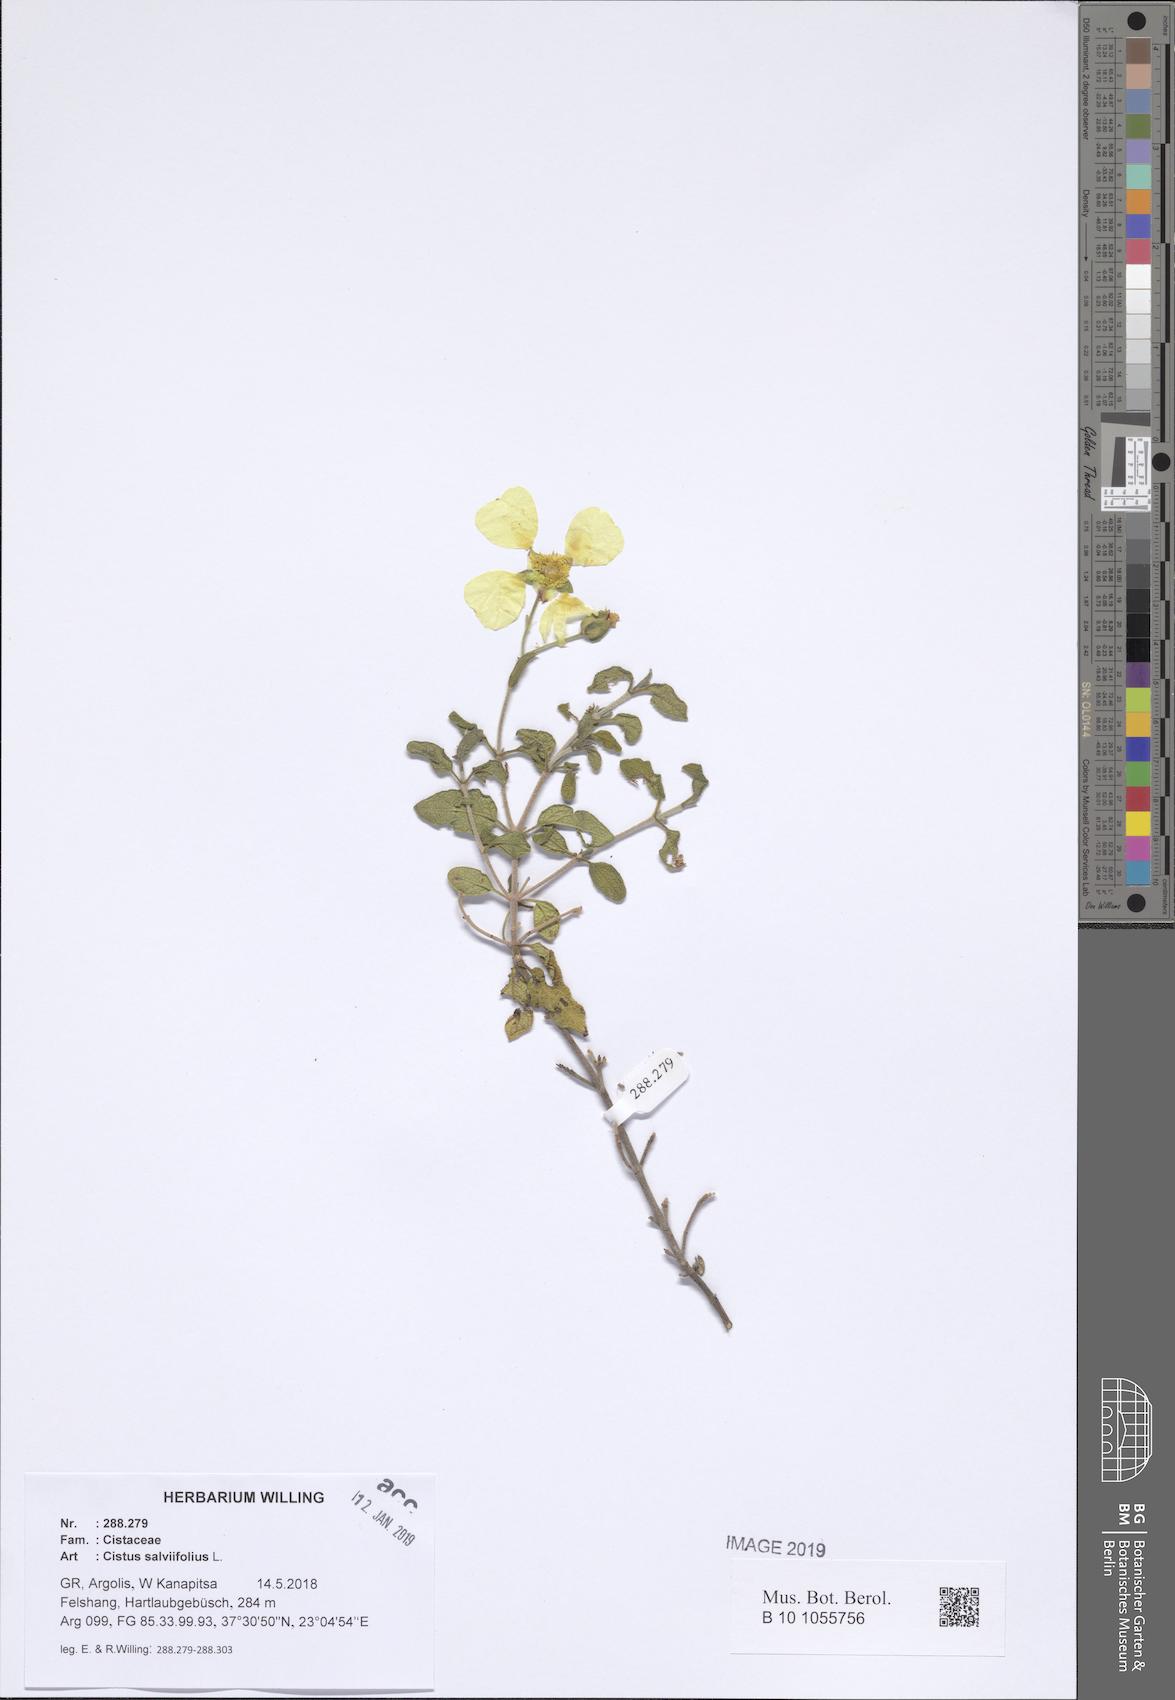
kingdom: Plantae
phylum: Tracheophyta
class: Magnoliopsida
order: Malvales
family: Cistaceae
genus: Cistus
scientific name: Cistus salviifolius
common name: Salvia cistus
